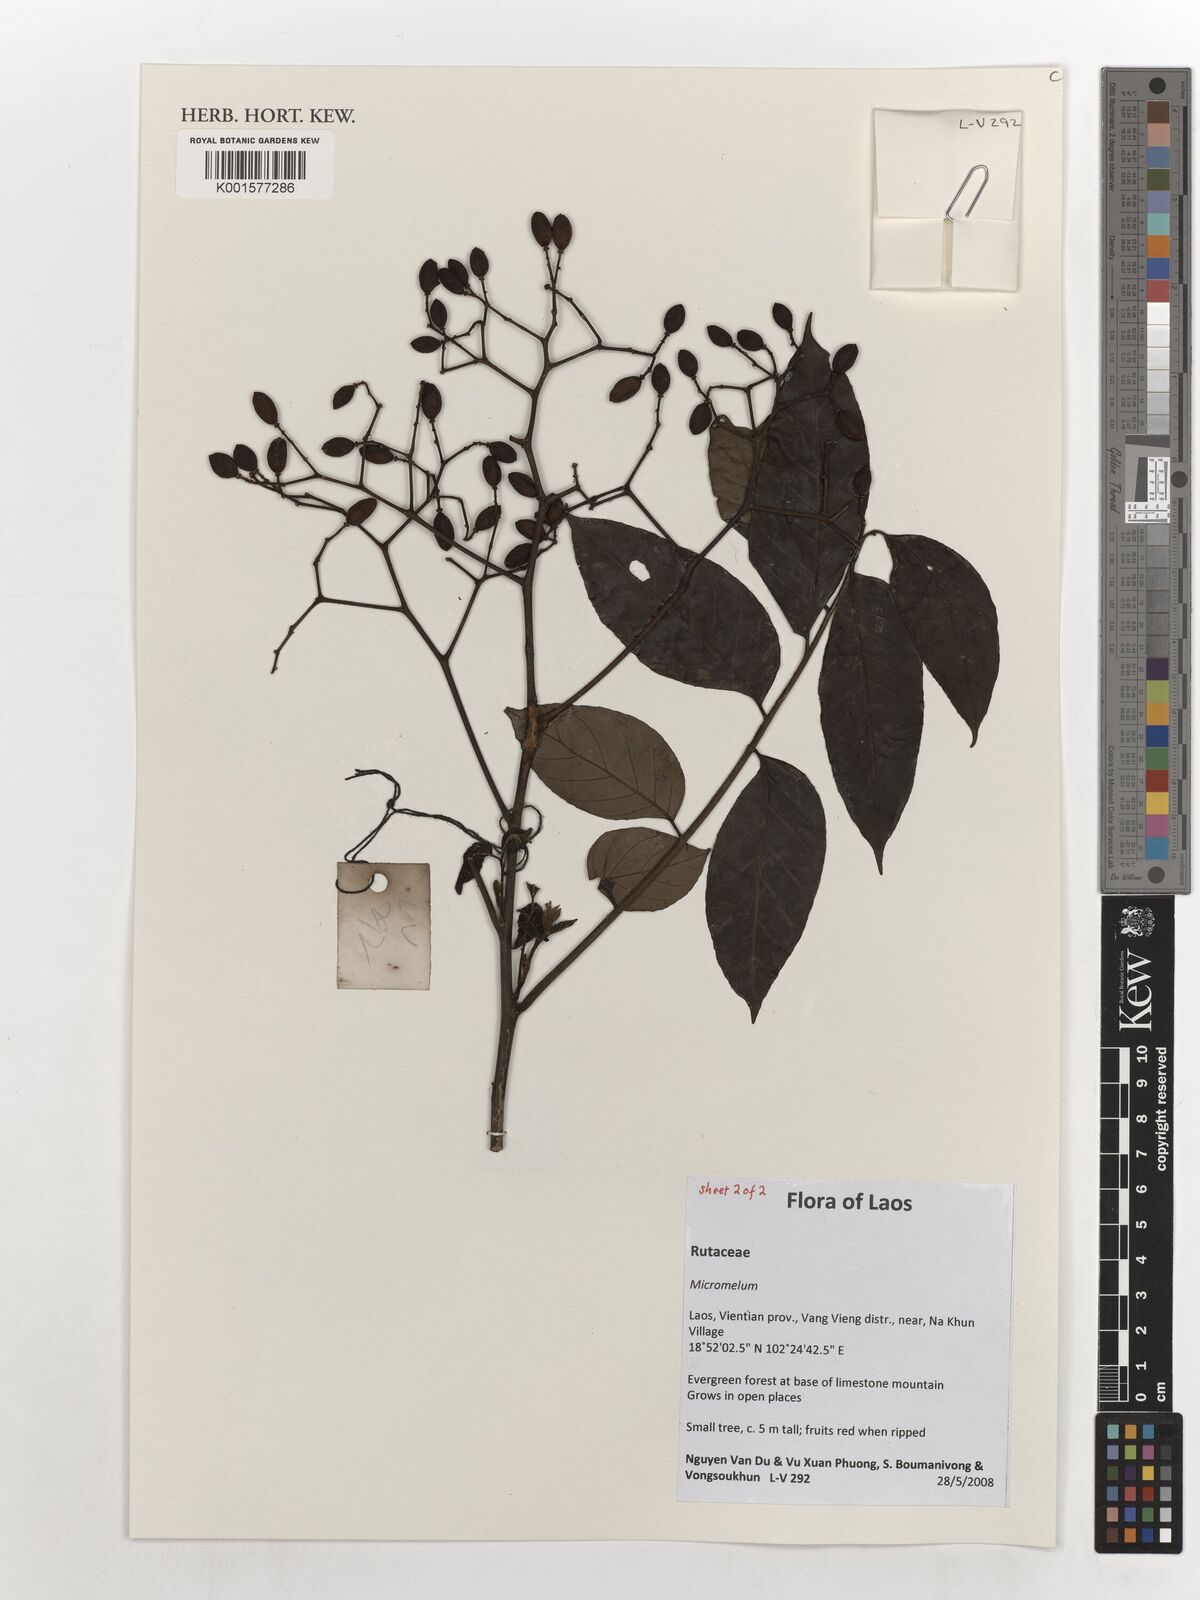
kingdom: Plantae
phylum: Tracheophyta
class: Magnoliopsida
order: Sapindales
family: Rutaceae
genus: Micromelum
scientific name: Micromelum
